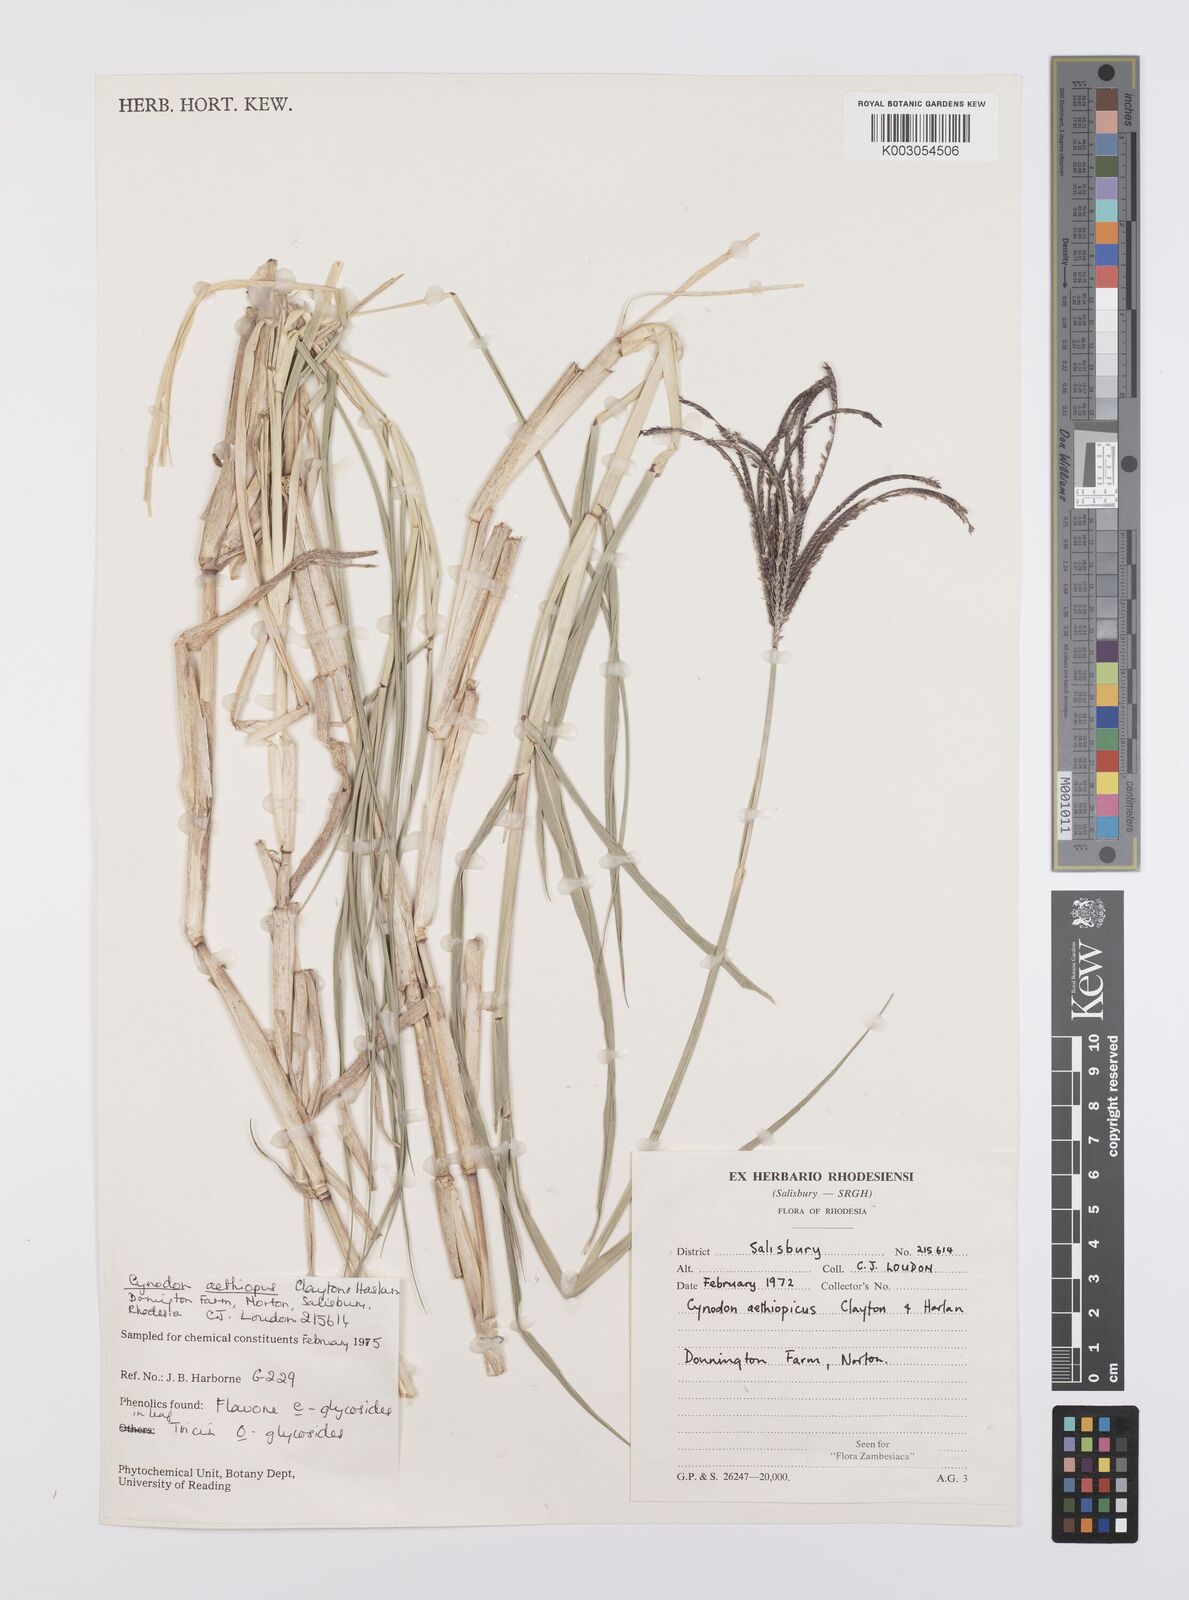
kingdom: Plantae
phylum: Tracheophyta
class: Liliopsida
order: Poales
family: Poaceae
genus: Cynodon
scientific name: Cynodon aethiopicus
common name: Ethiopian dogstooth grass
